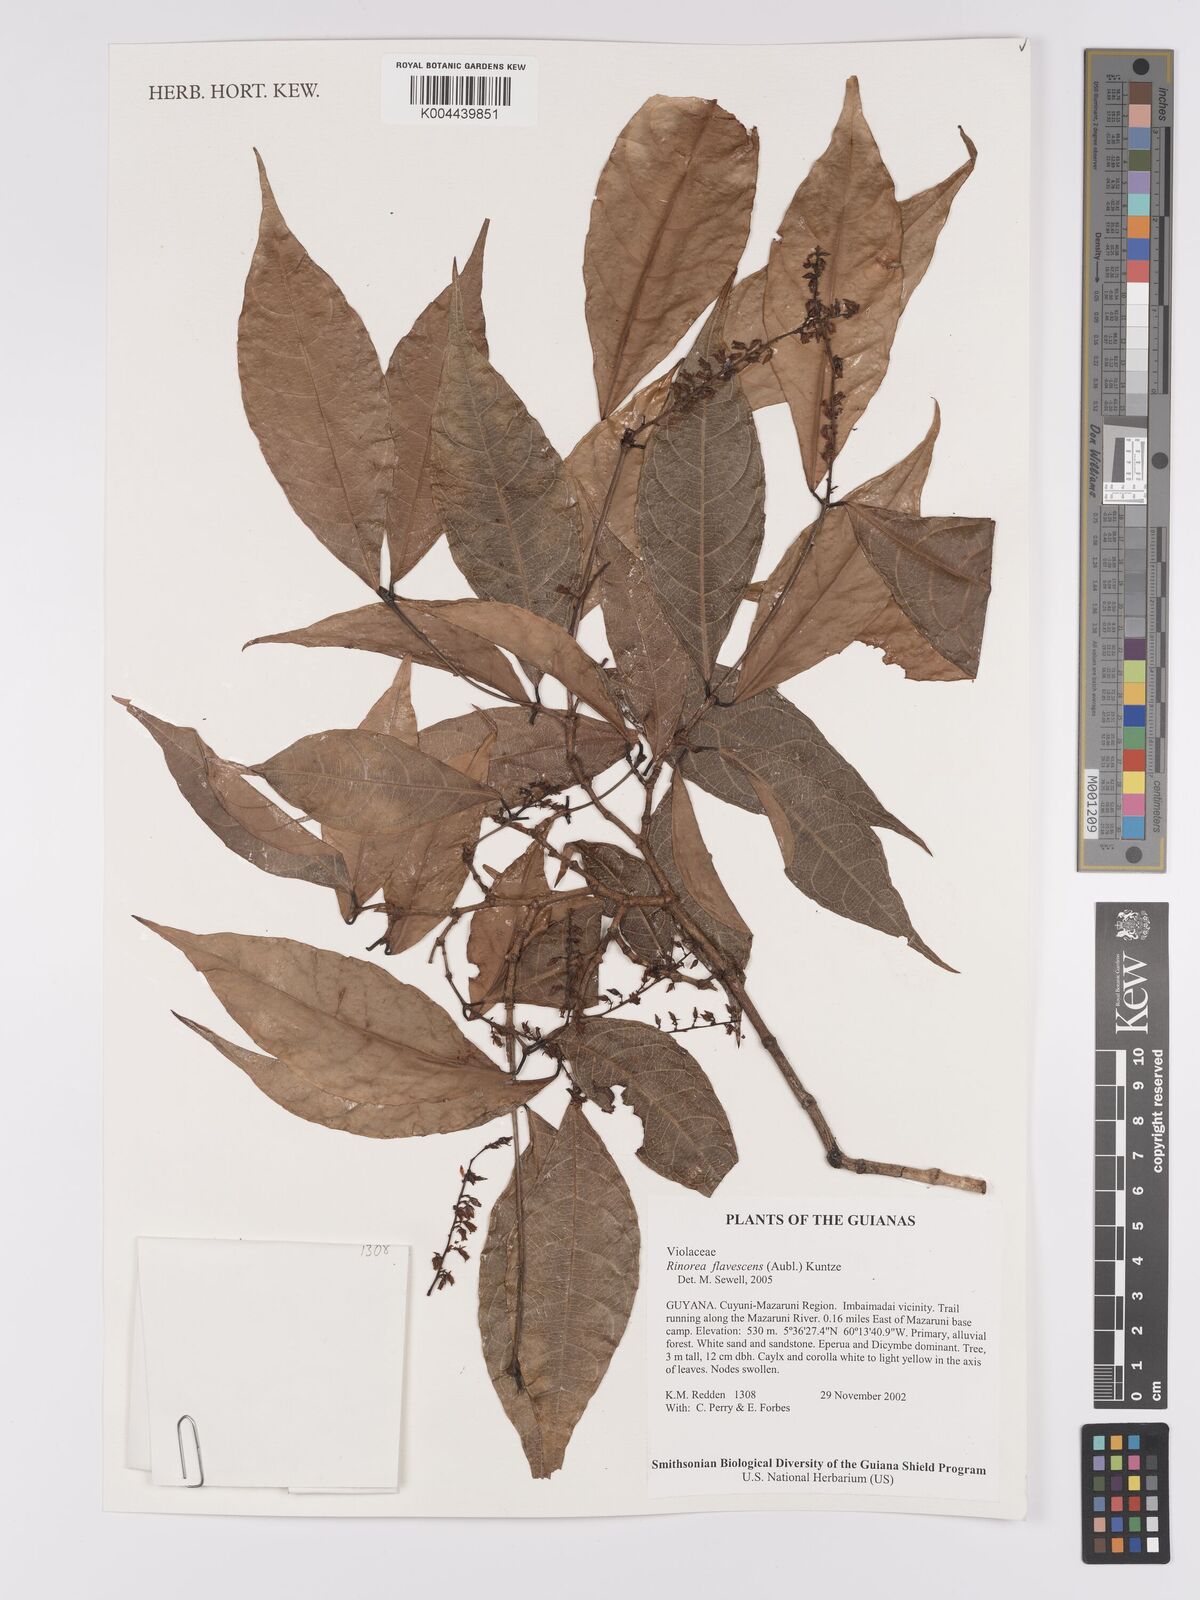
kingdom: Plantae
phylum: Tracheophyta
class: Magnoliopsida
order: Malpighiales
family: Violaceae
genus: Rinorea
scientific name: Rinorea flavescens
